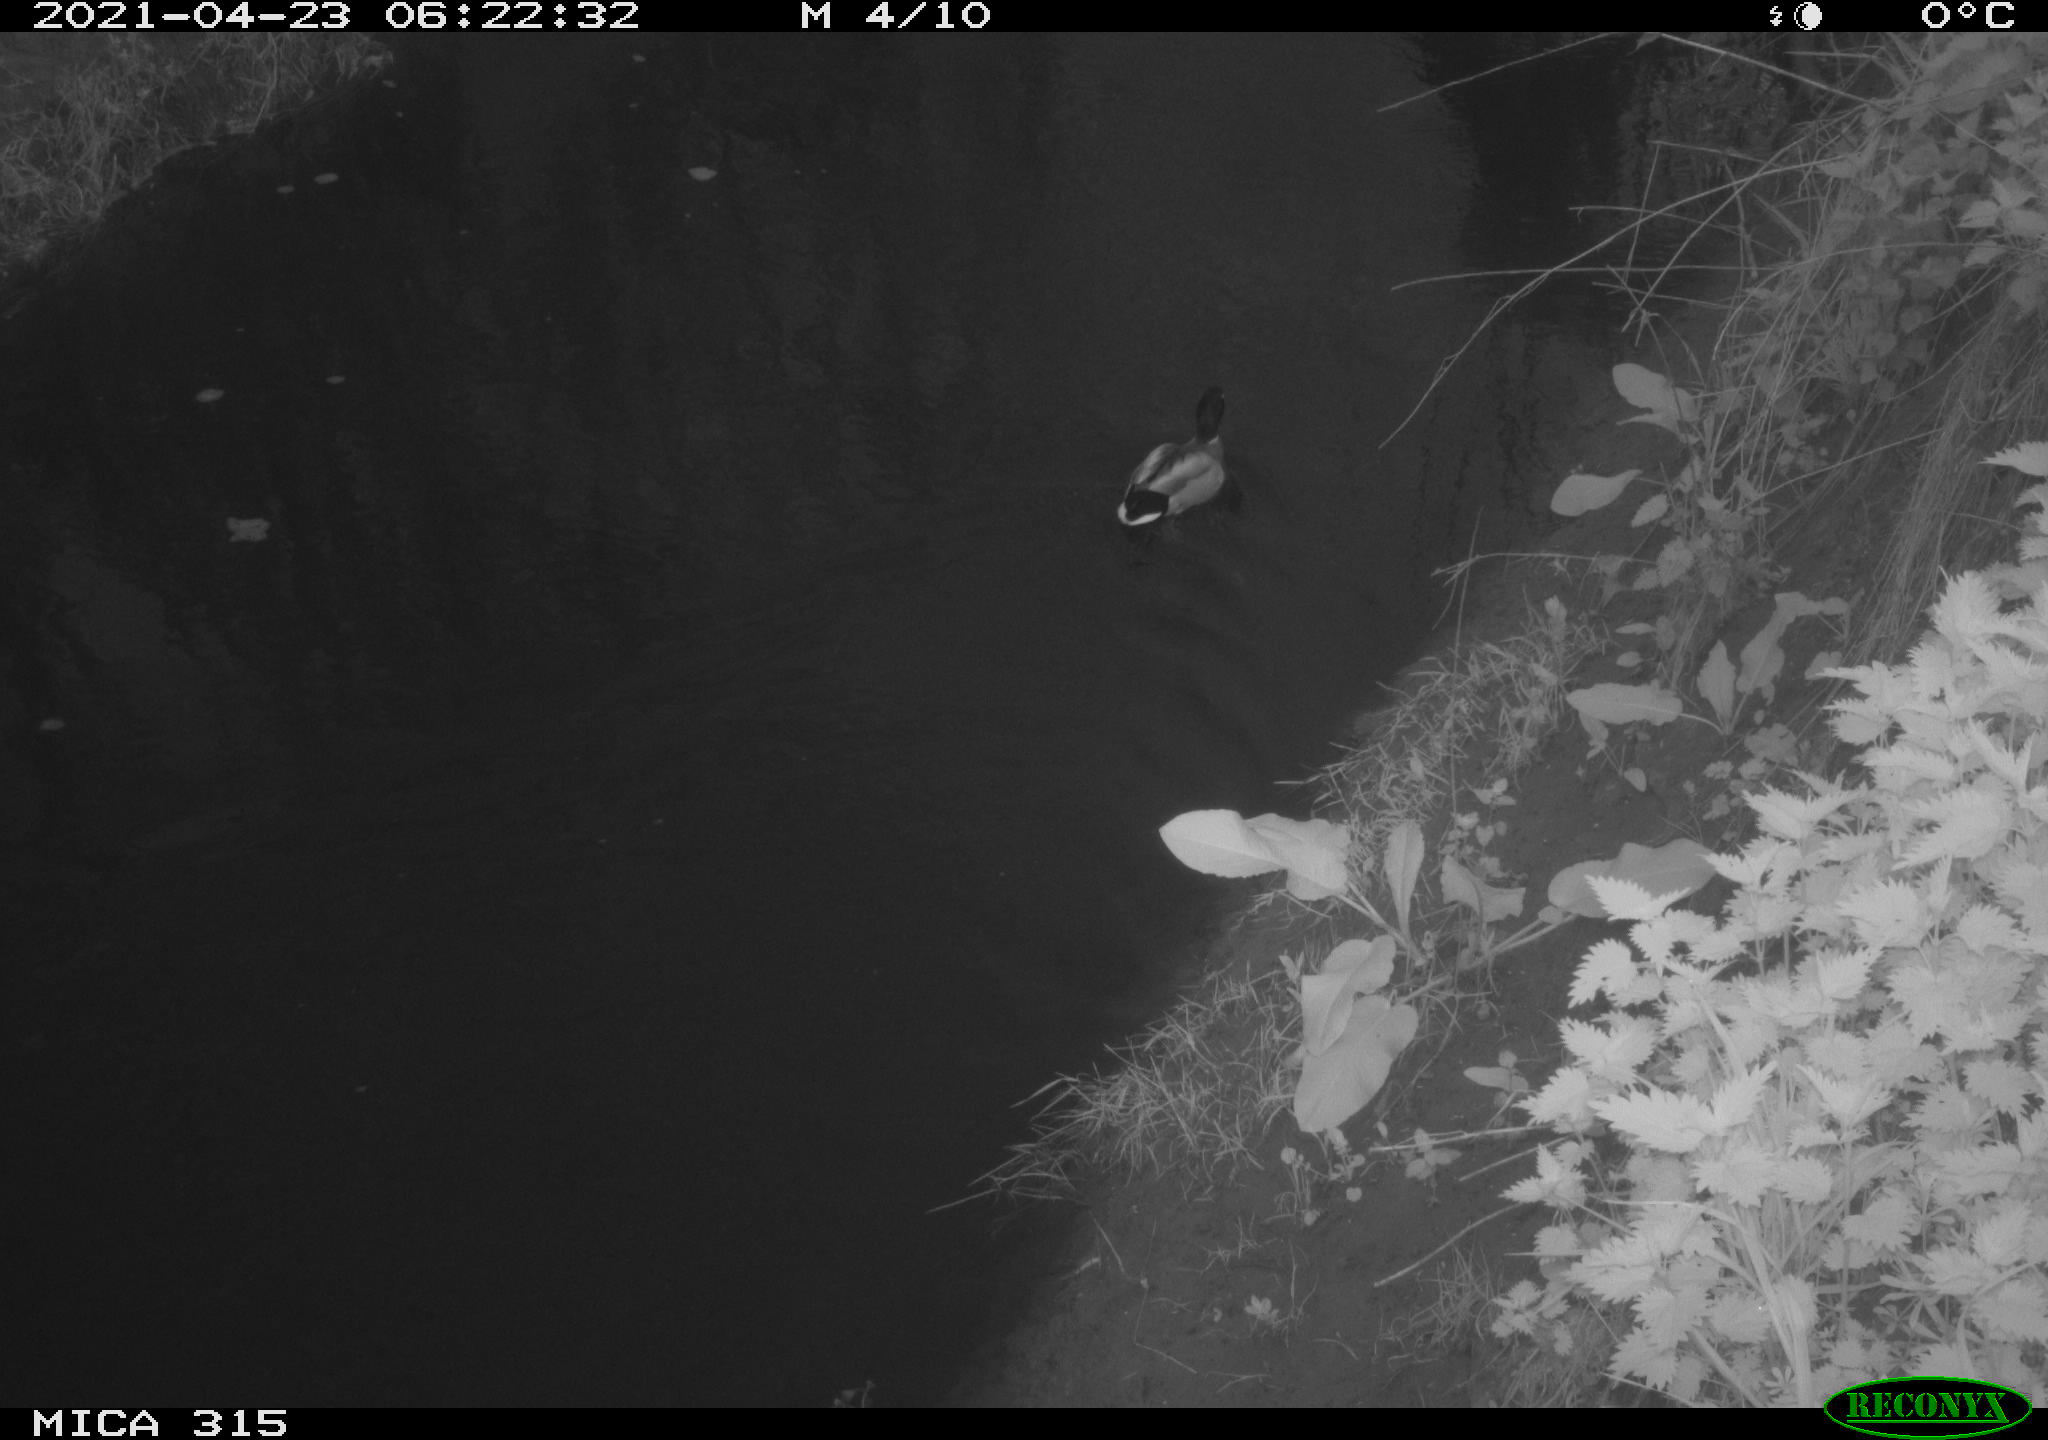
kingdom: Animalia
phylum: Chordata
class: Aves
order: Anseriformes
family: Anatidae
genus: Anas
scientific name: Anas
